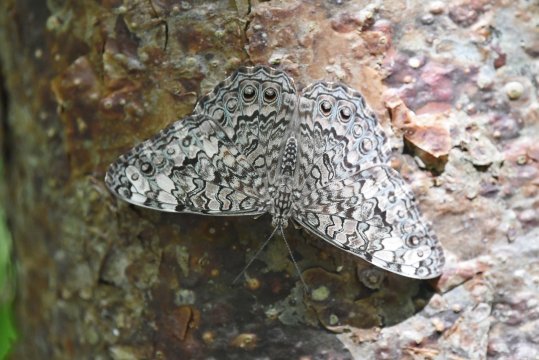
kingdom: Animalia
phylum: Arthropoda
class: Insecta
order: Lepidoptera
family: Nymphalidae
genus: Hamadryas
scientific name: Hamadryas februa
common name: Gray Cracker
